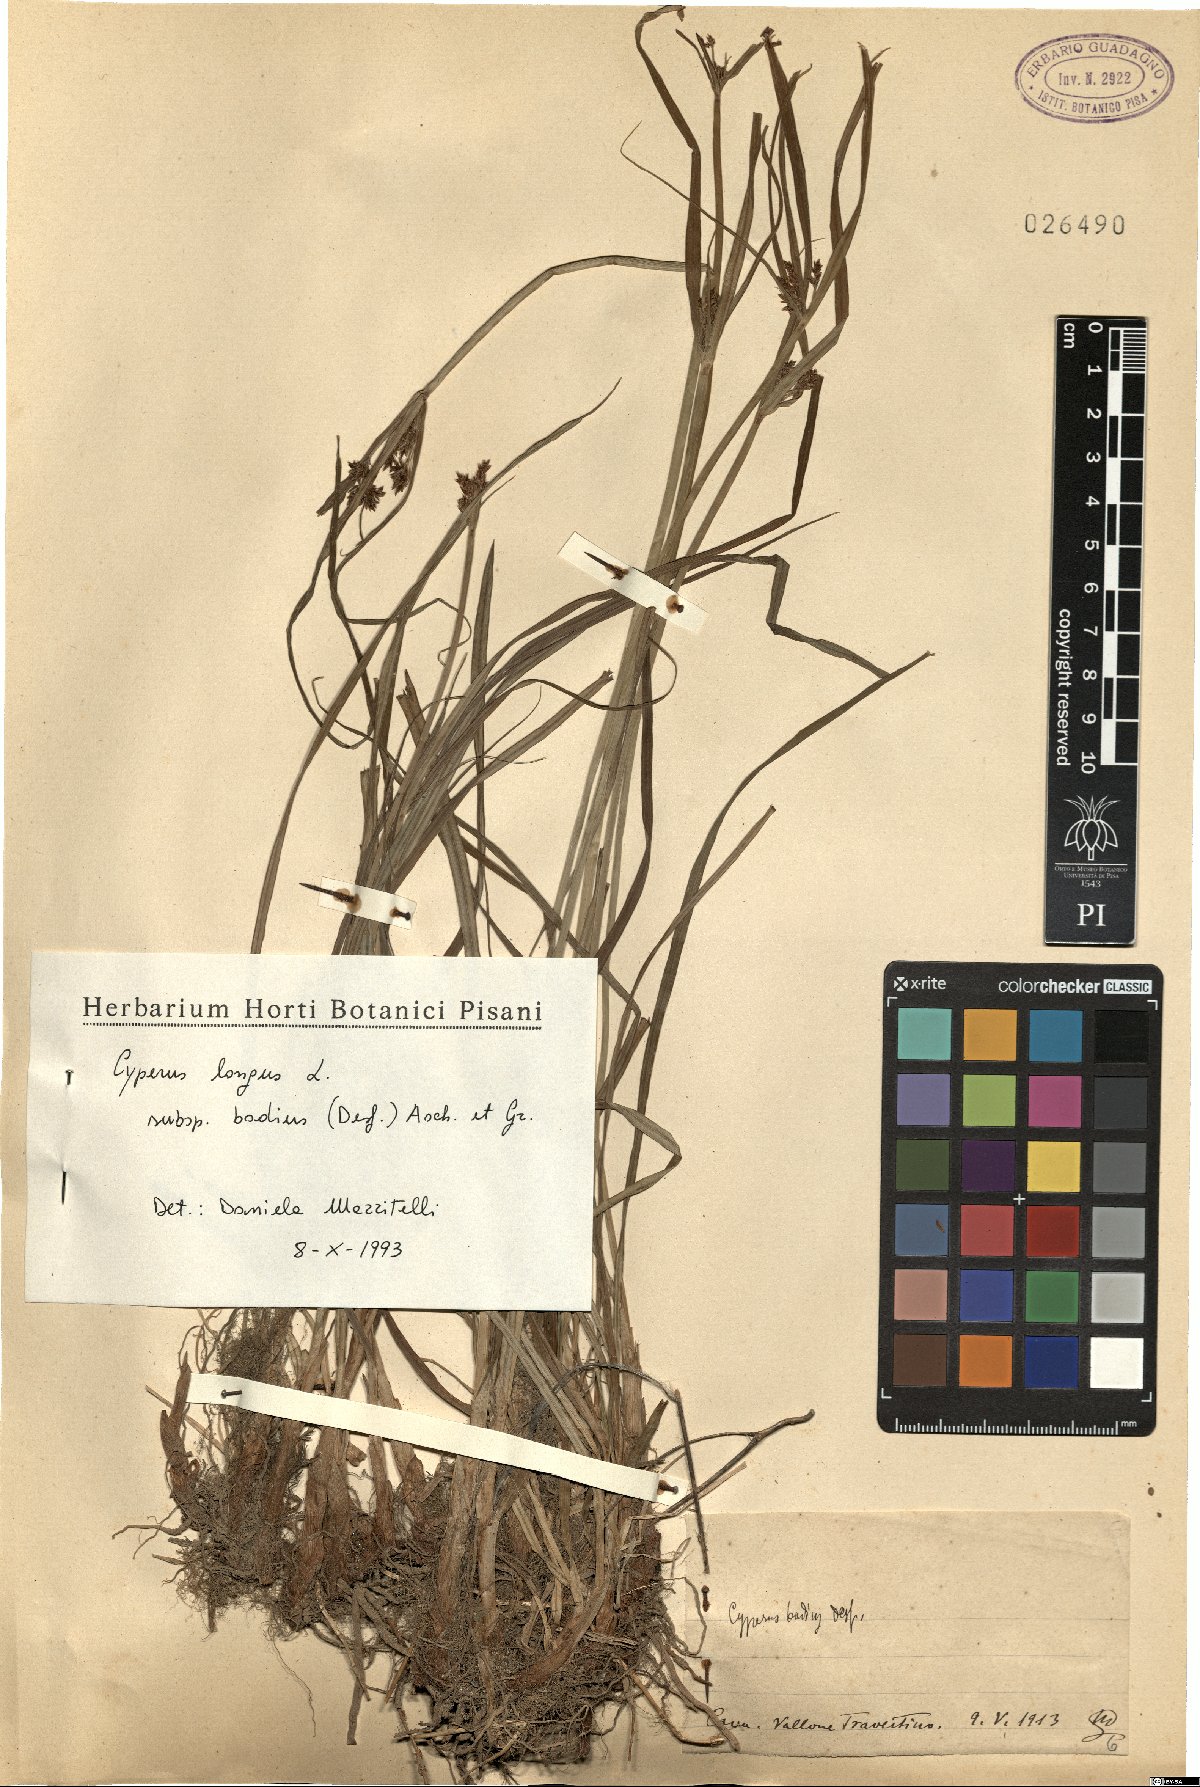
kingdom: Plantae
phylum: Tracheophyta
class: Liliopsida
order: Poales
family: Cyperaceae
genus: Cyperus
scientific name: Cyperus longus
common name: Galingale
